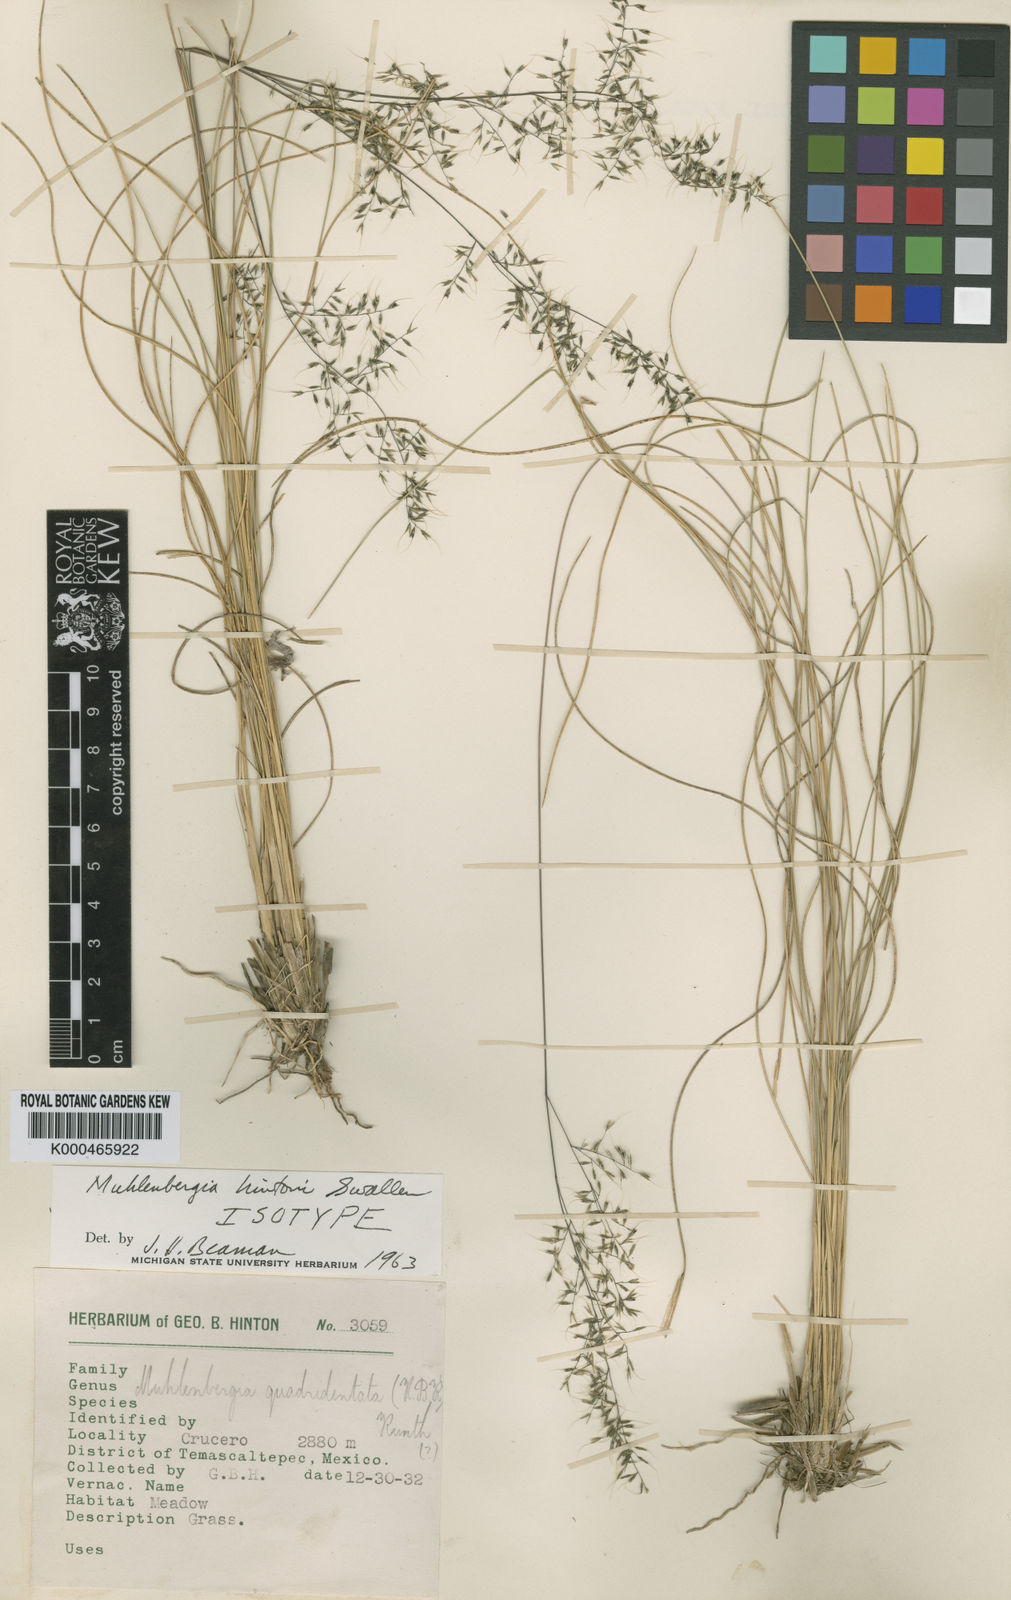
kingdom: Plantae
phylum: Tracheophyta
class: Liliopsida
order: Poales
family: Poaceae
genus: Muhlenbergia
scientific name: Muhlenbergia hintonii
